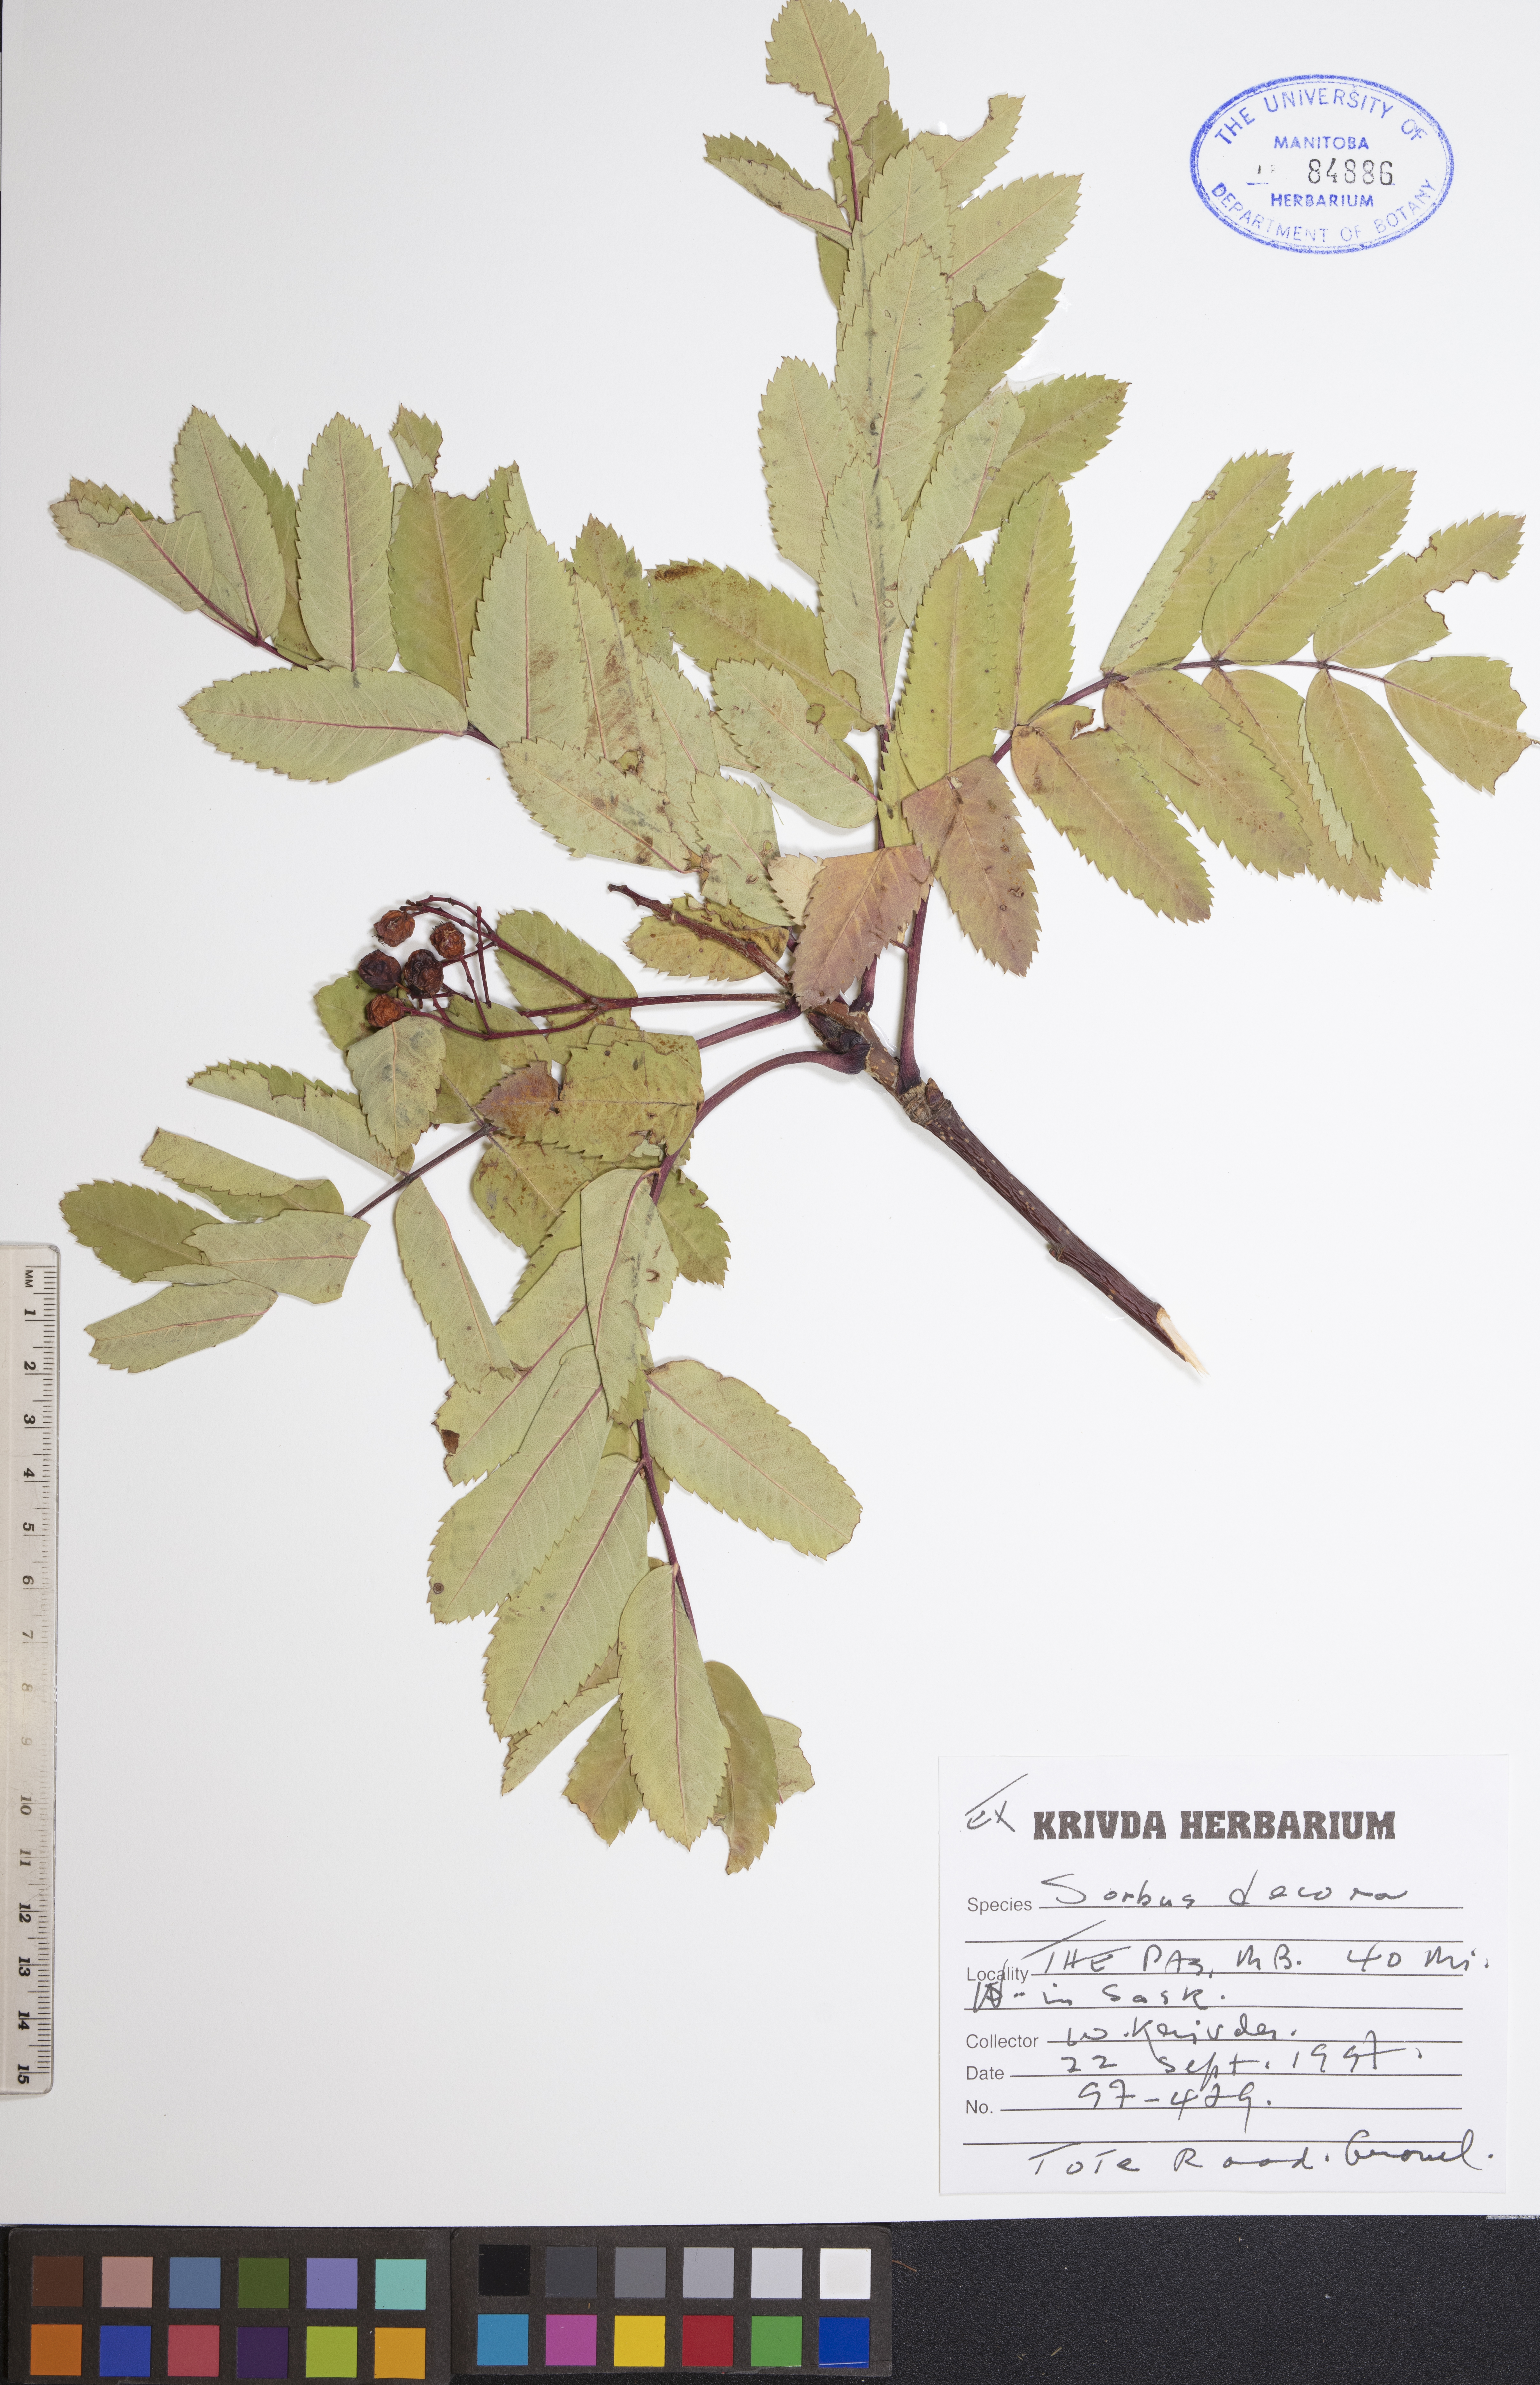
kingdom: Plantae
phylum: Tracheophyta
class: Magnoliopsida
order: Rosales
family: Rosaceae
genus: Sorbus
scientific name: Sorbus decora
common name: Northern mountain-ash
